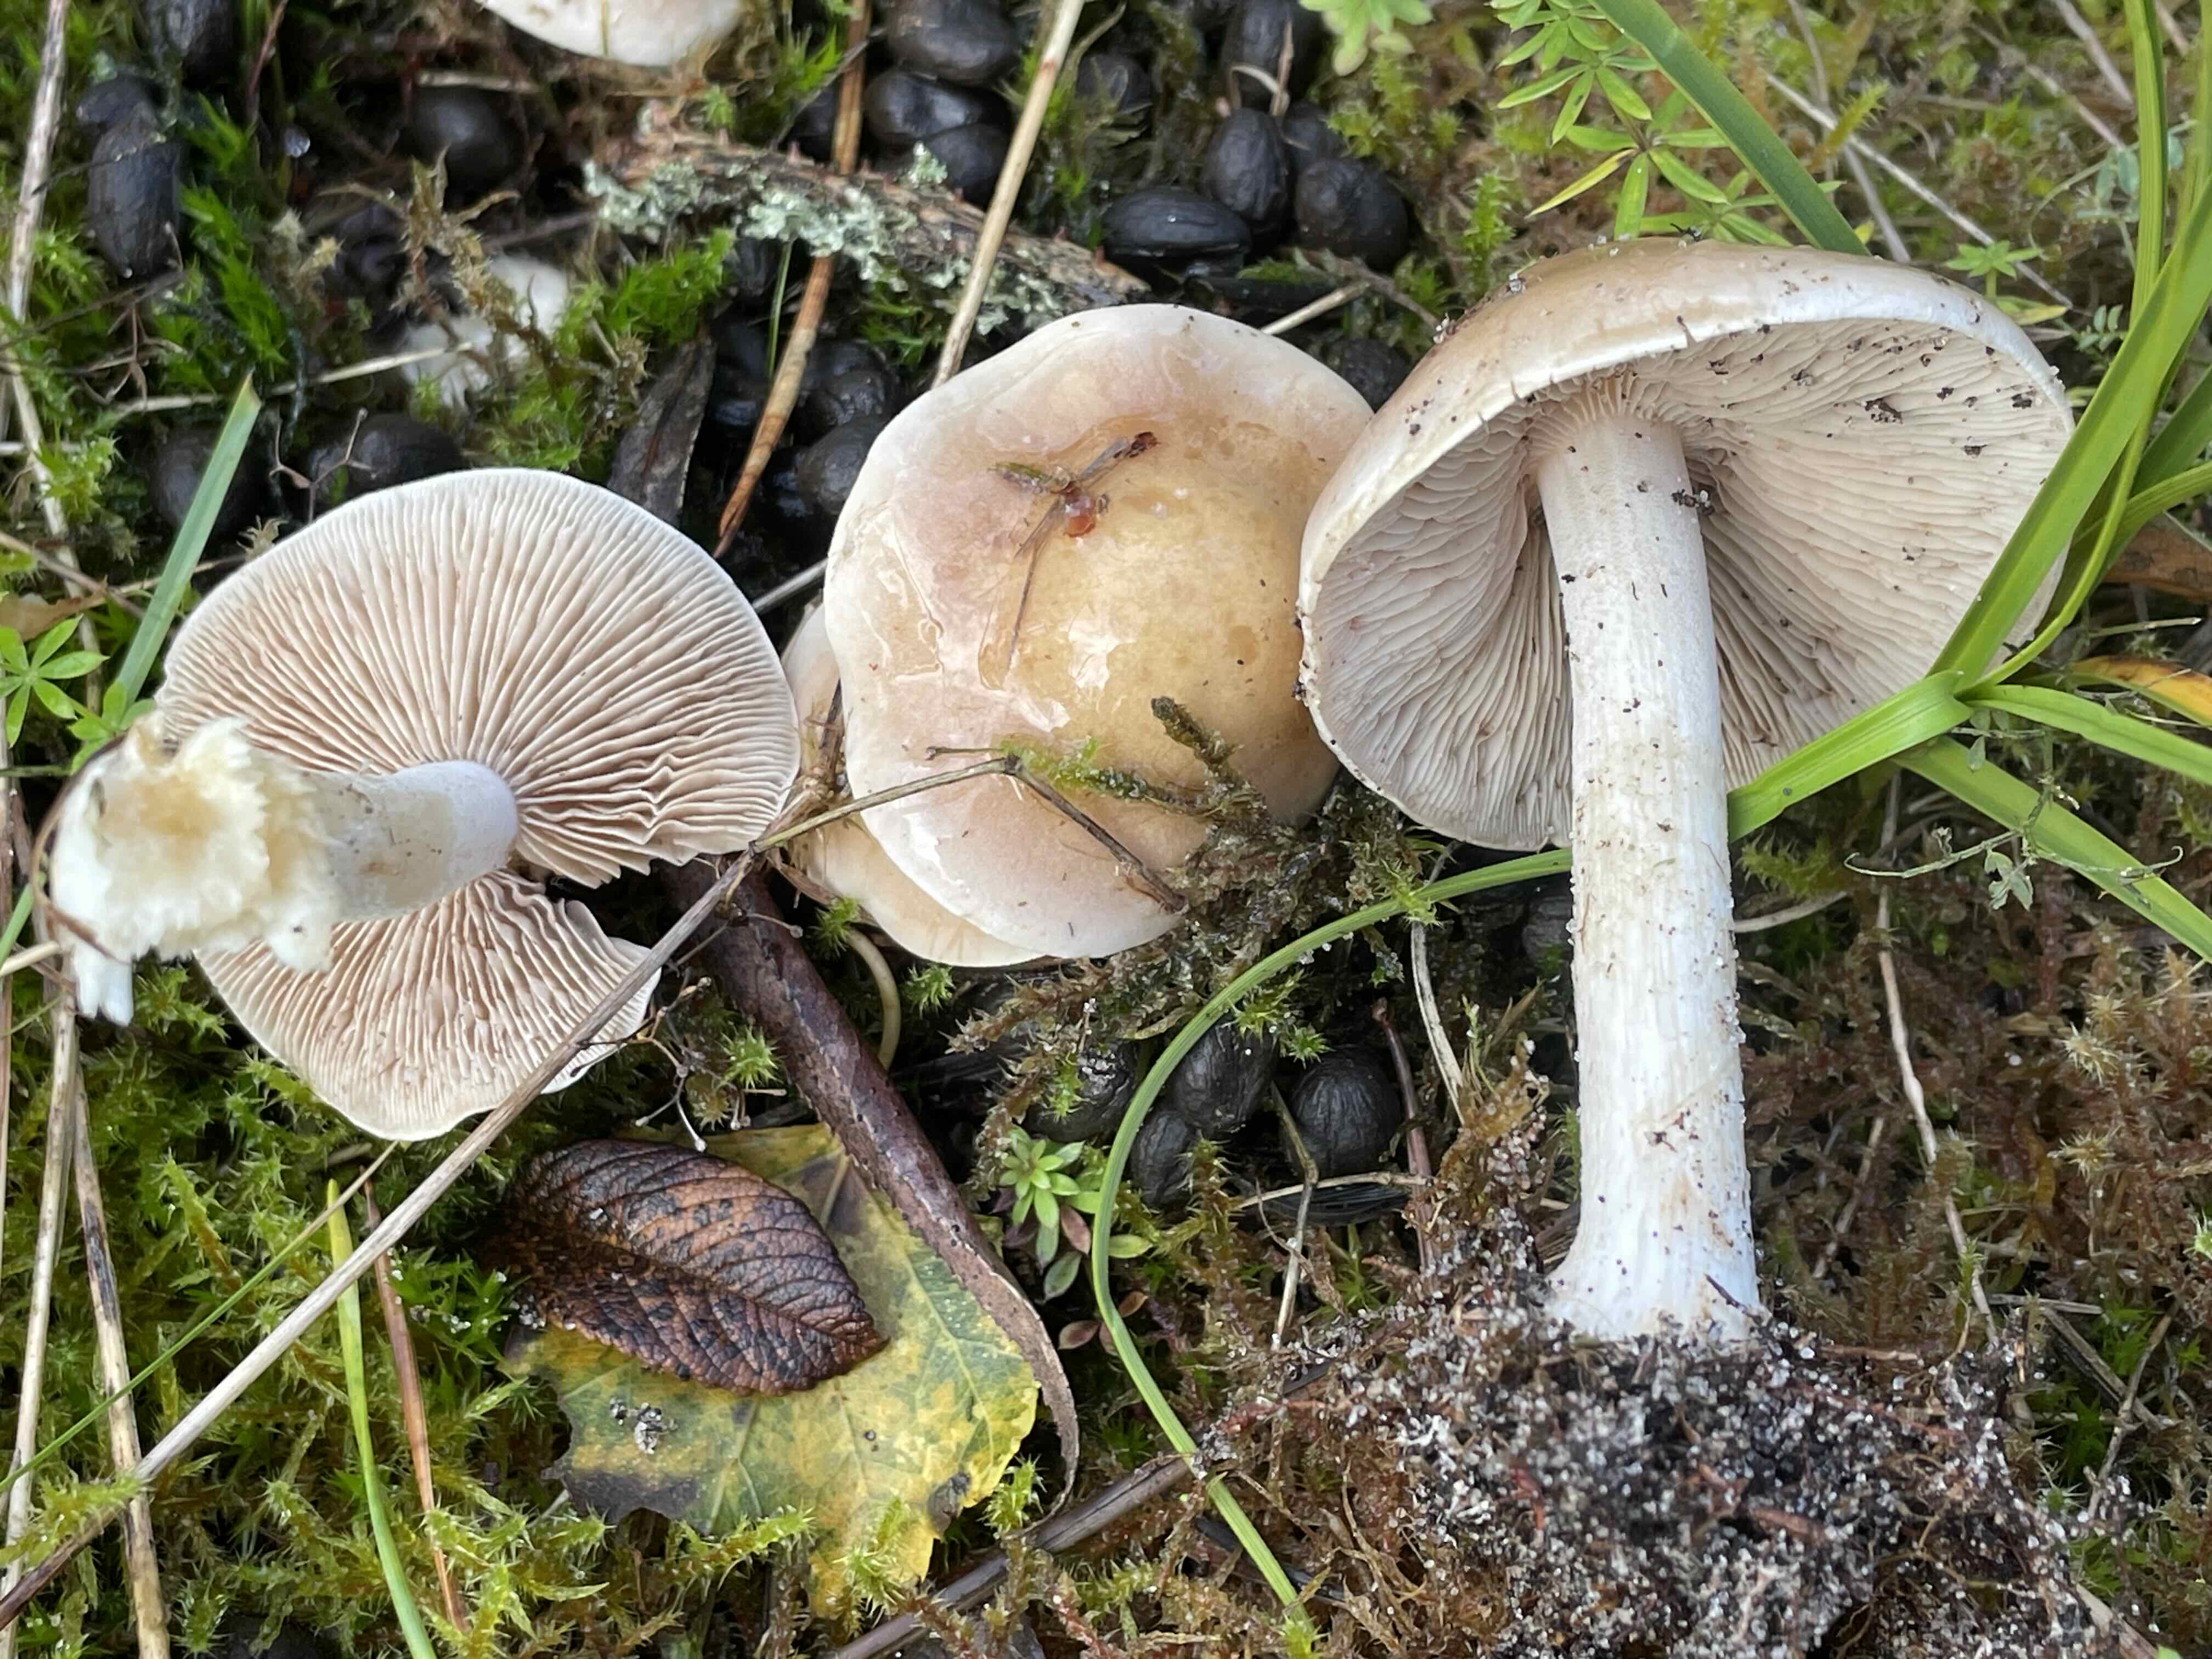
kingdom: Fungi
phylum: Basidiomycota
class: Agaricomycetes
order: Agaricales
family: Hymenogastraceae
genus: Hebeloma
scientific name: Hebeloma
